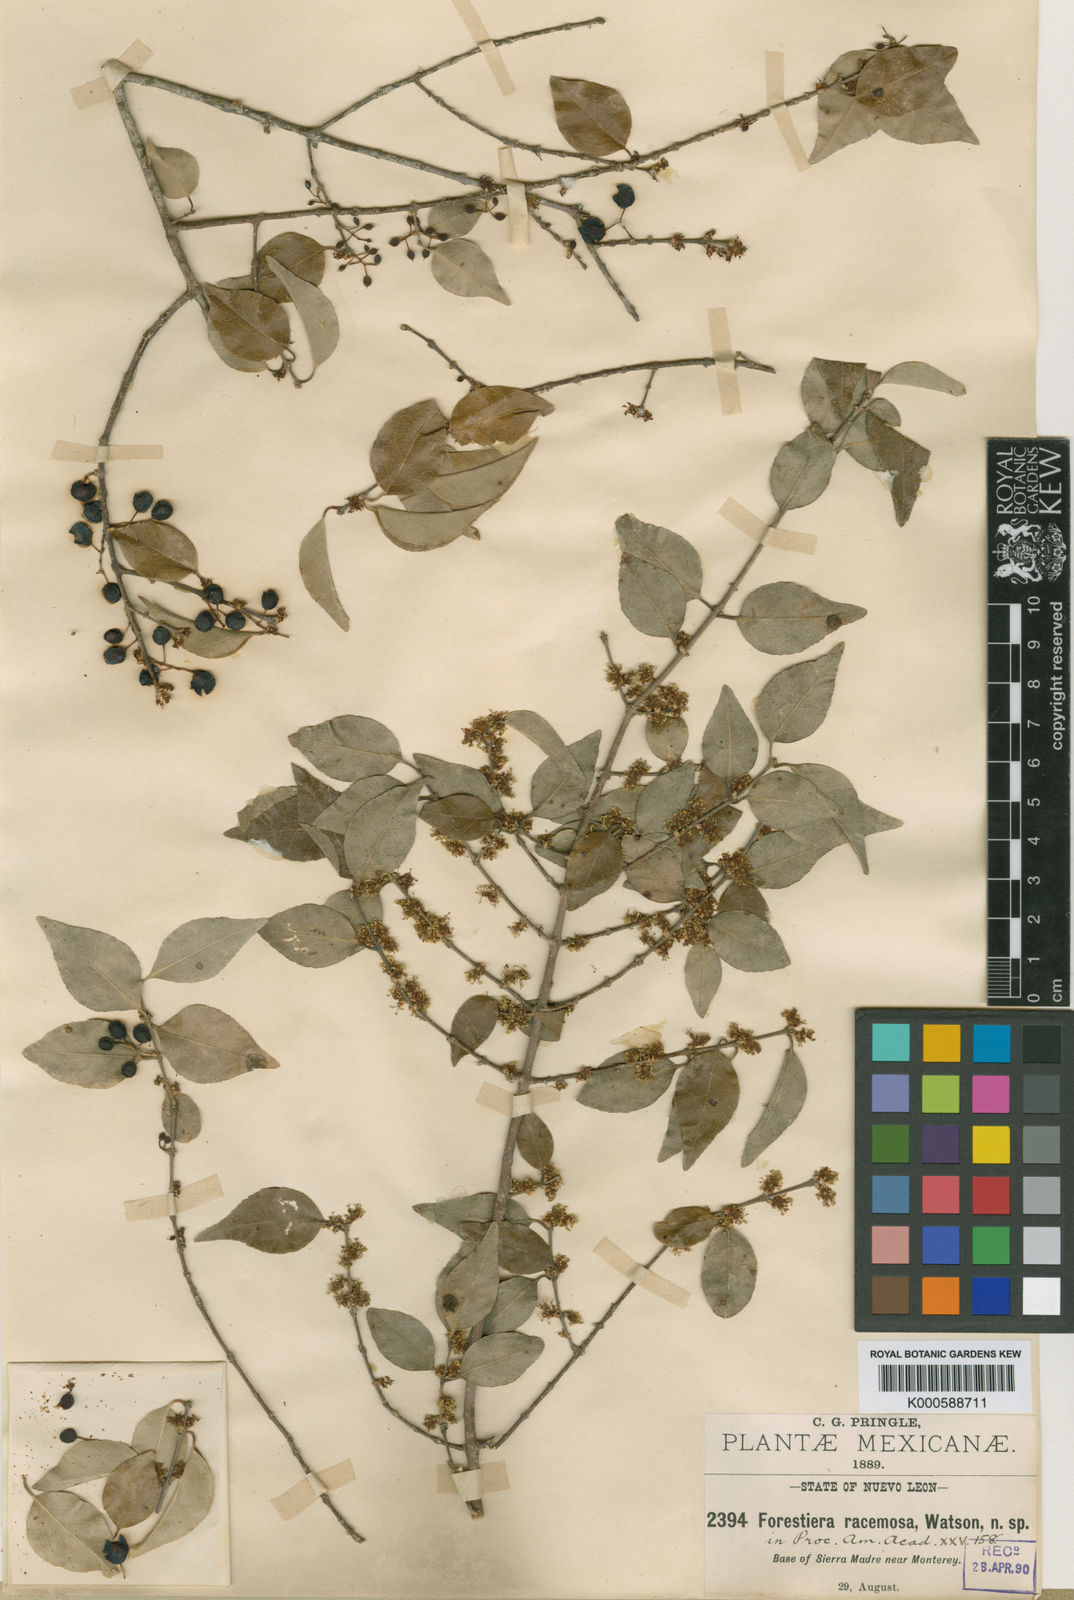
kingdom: Plantae
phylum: Tracheophyta
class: Magnoliopsida
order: Lamiales
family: Oleaceae
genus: Forestiera
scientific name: Forestiera racemosa
